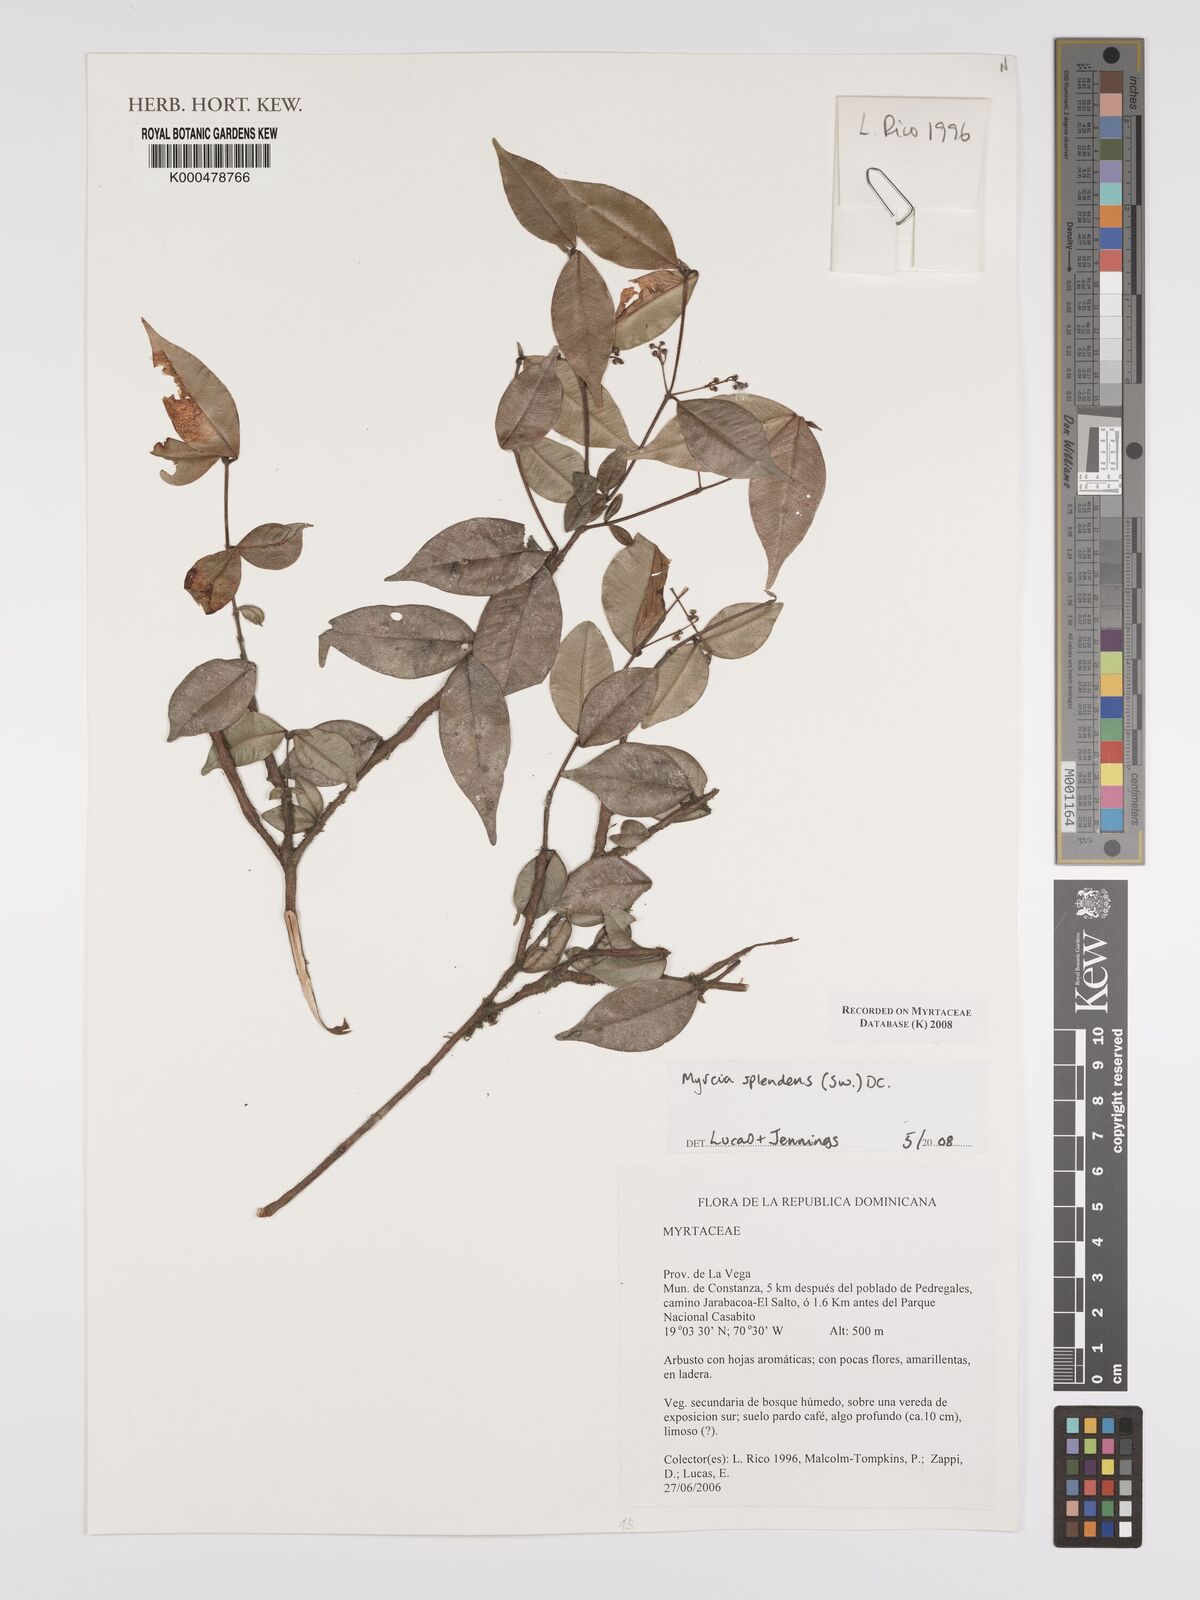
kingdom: Plantae
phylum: Tracheophyta
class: Magnoliopsida
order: Myrtales
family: Myrtaceae
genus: Myrcia
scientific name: Myrcia splendens
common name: Surinam cherry
